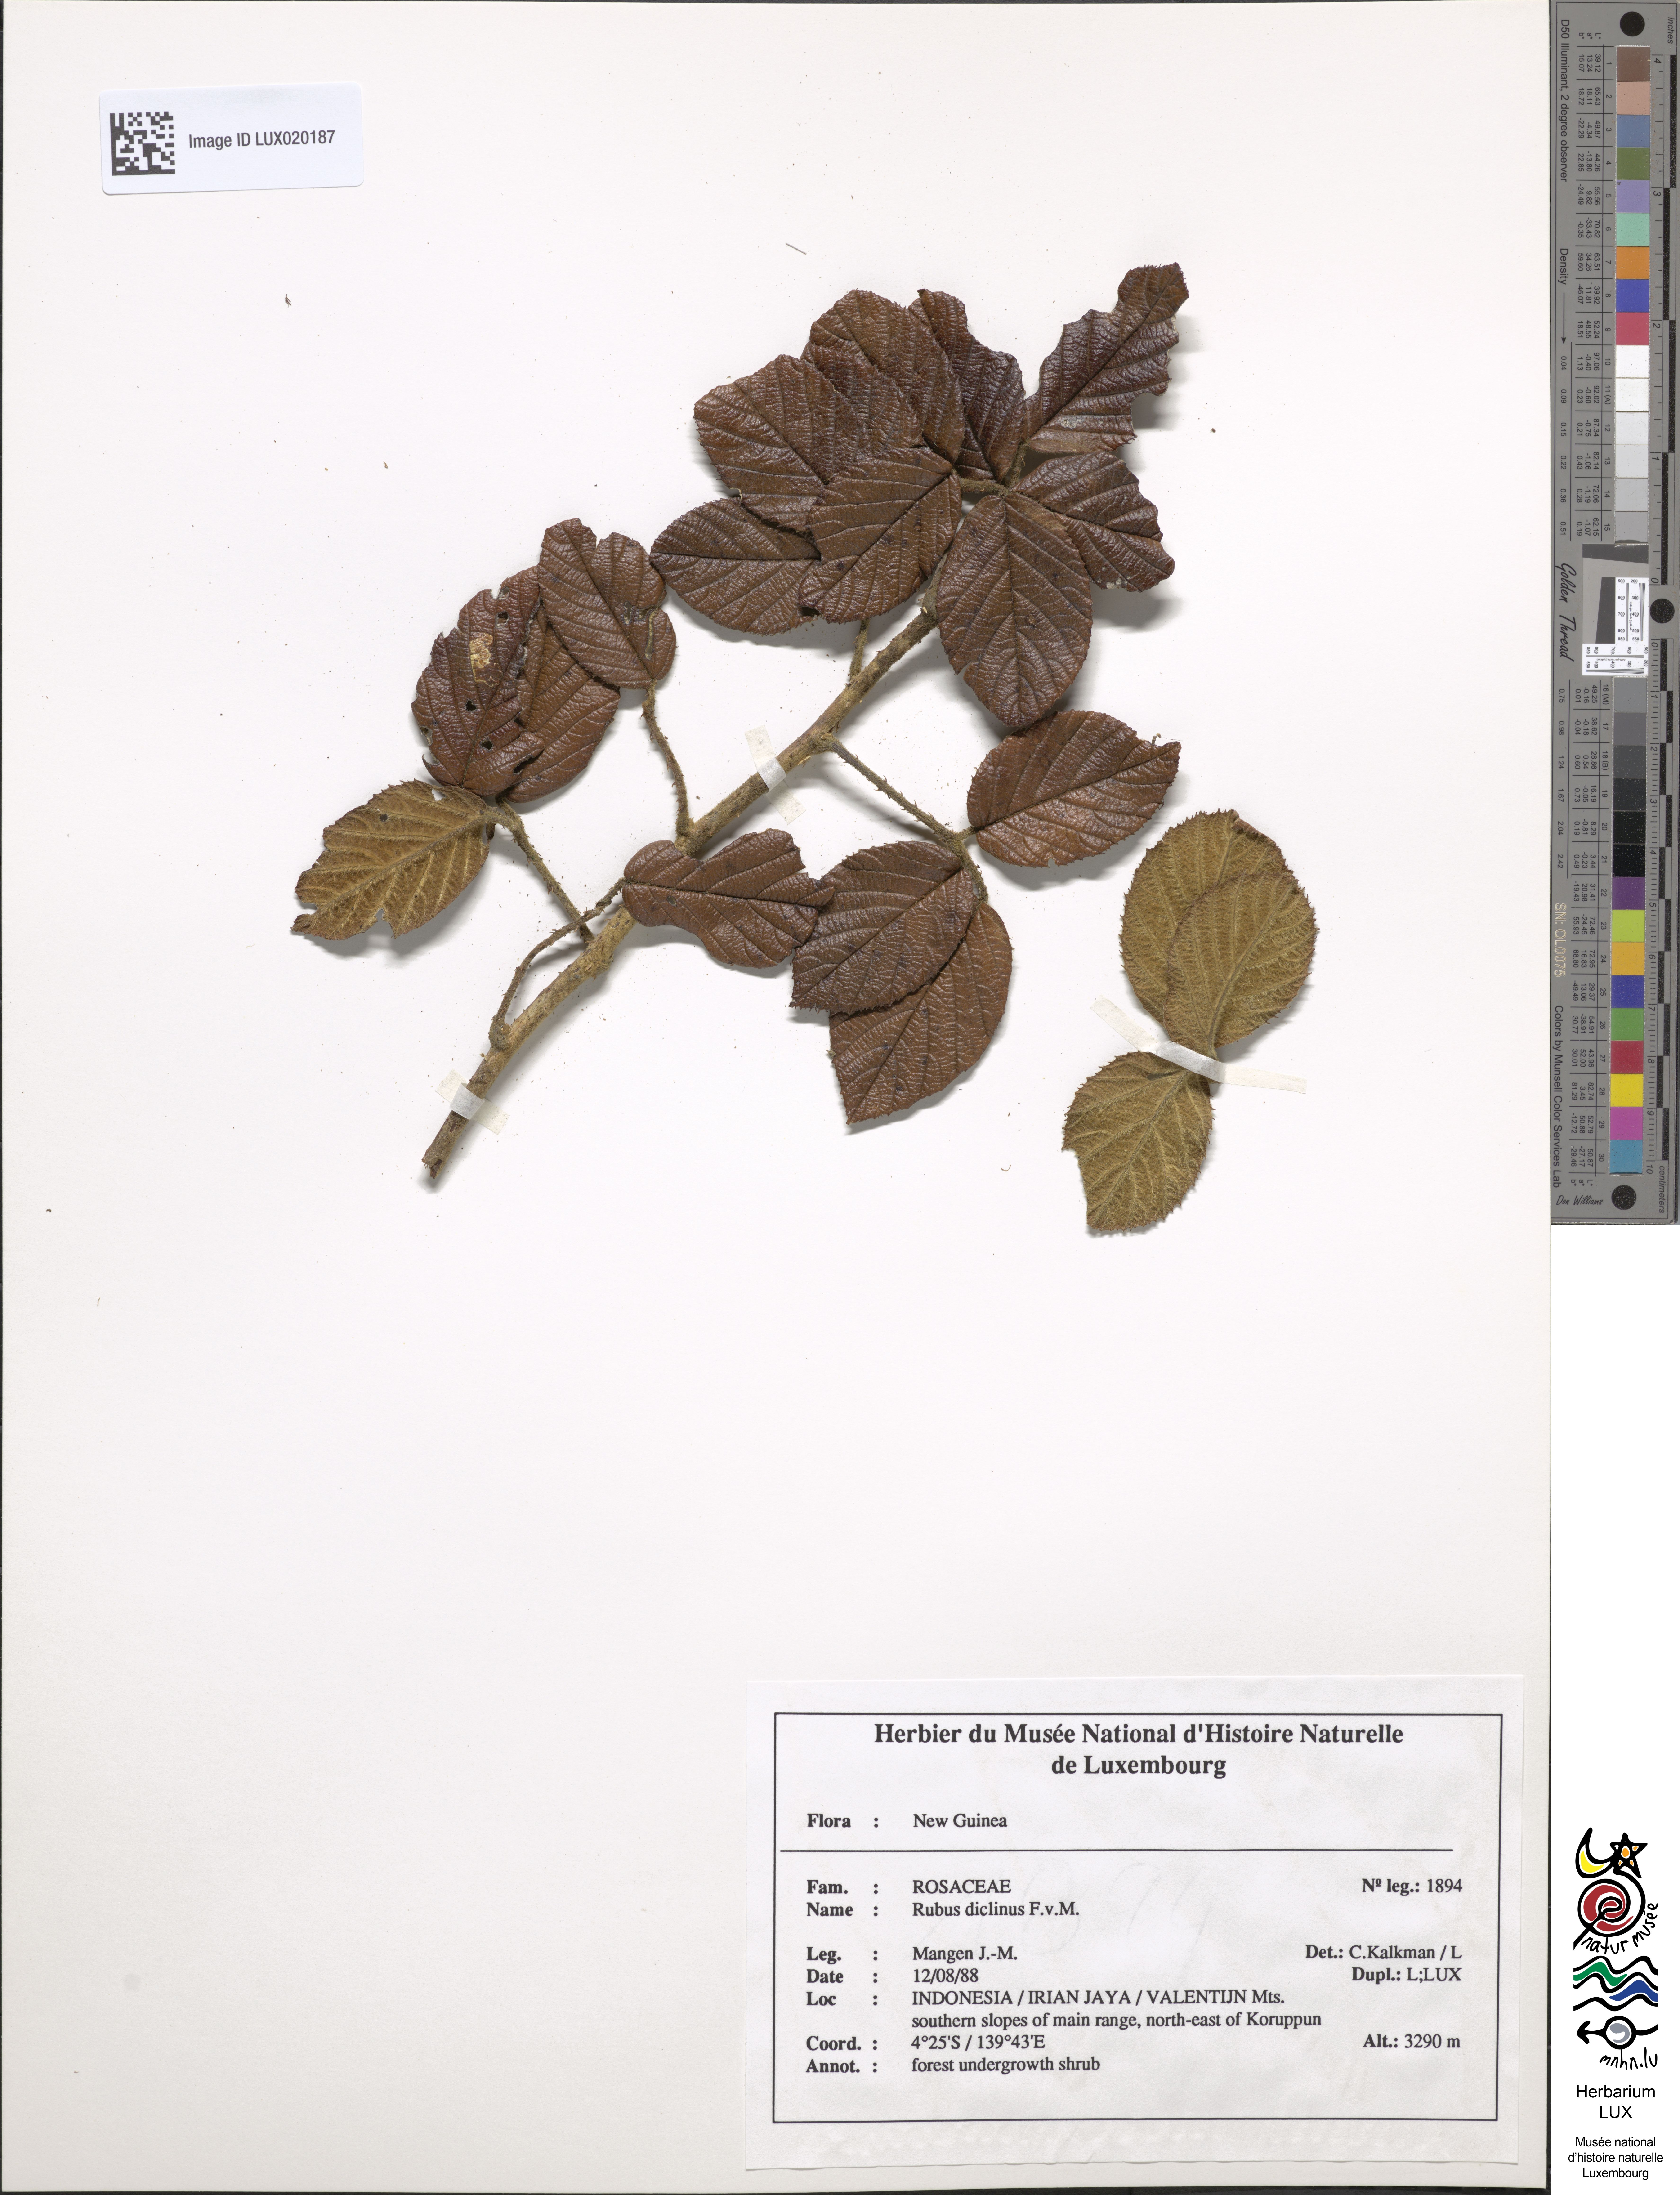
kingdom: Plantae
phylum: Tracheophyta
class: Magnoliopsida
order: Rosales
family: Rosaceae
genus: Rubus
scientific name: Rubus diclinis
